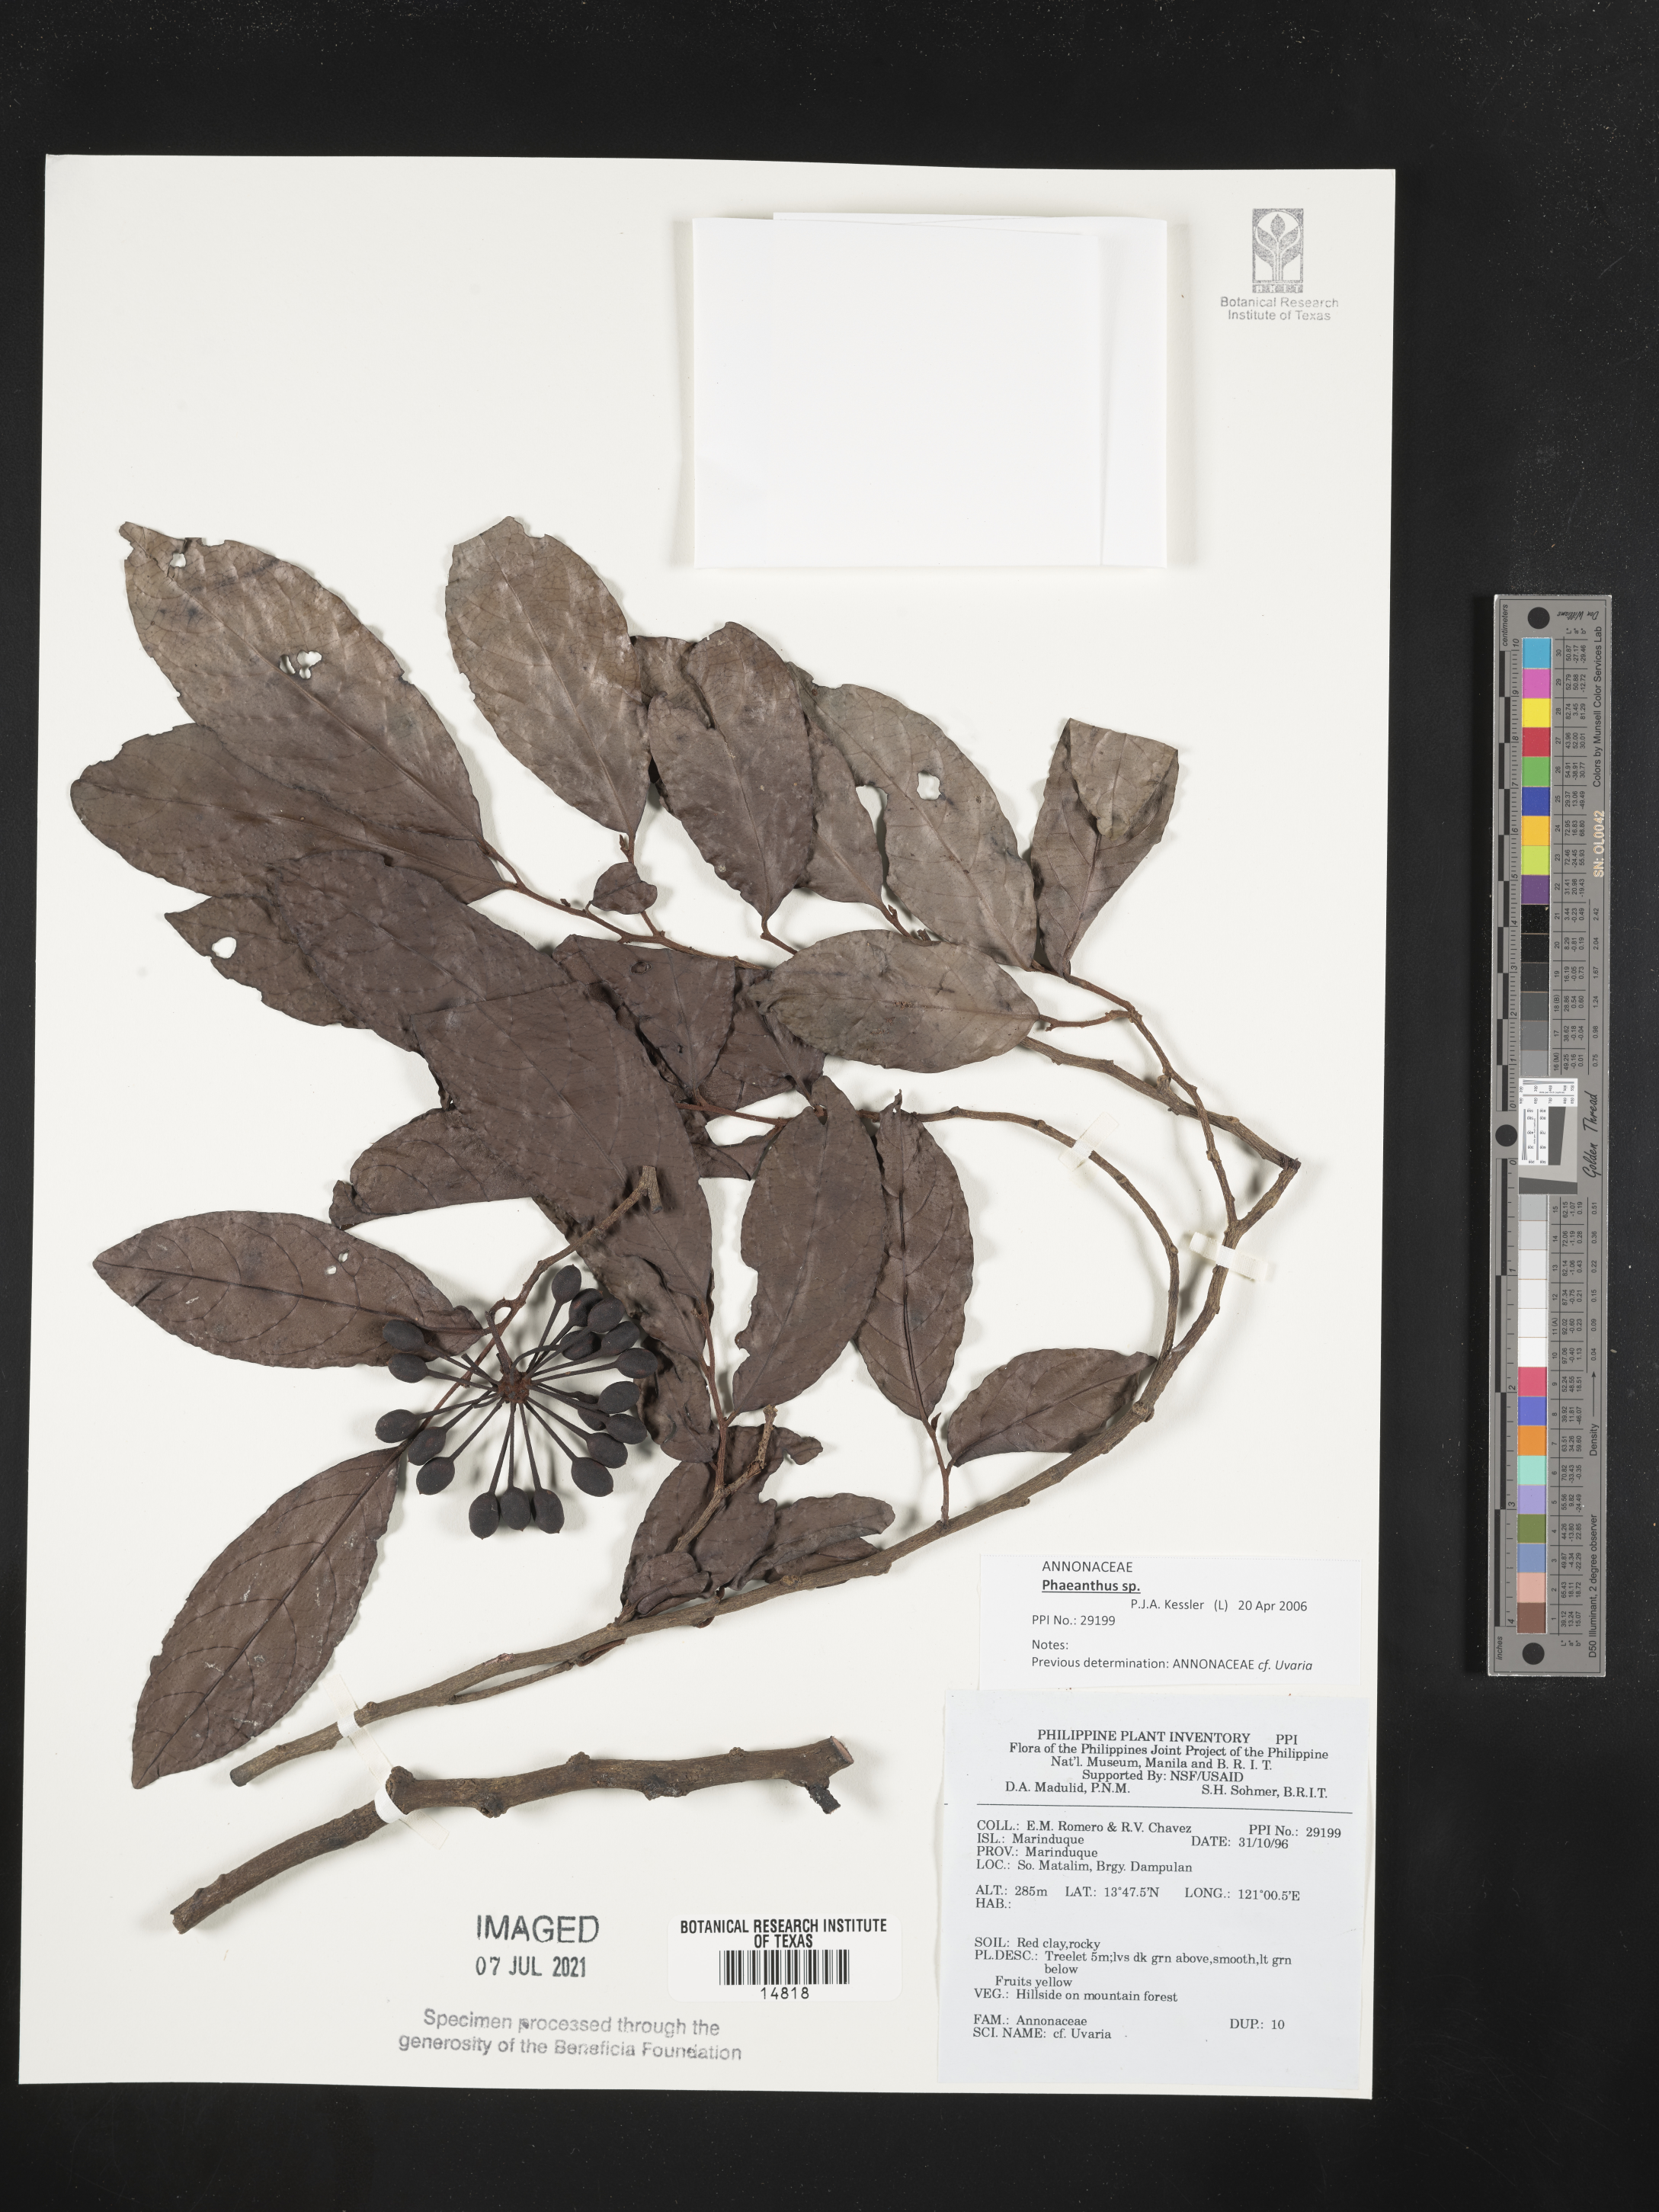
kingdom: Plantae
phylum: Tracheophyta
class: Magnoliopsida
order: Magnoliales
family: Annonaceae
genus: Uvaria
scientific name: Uvaria
